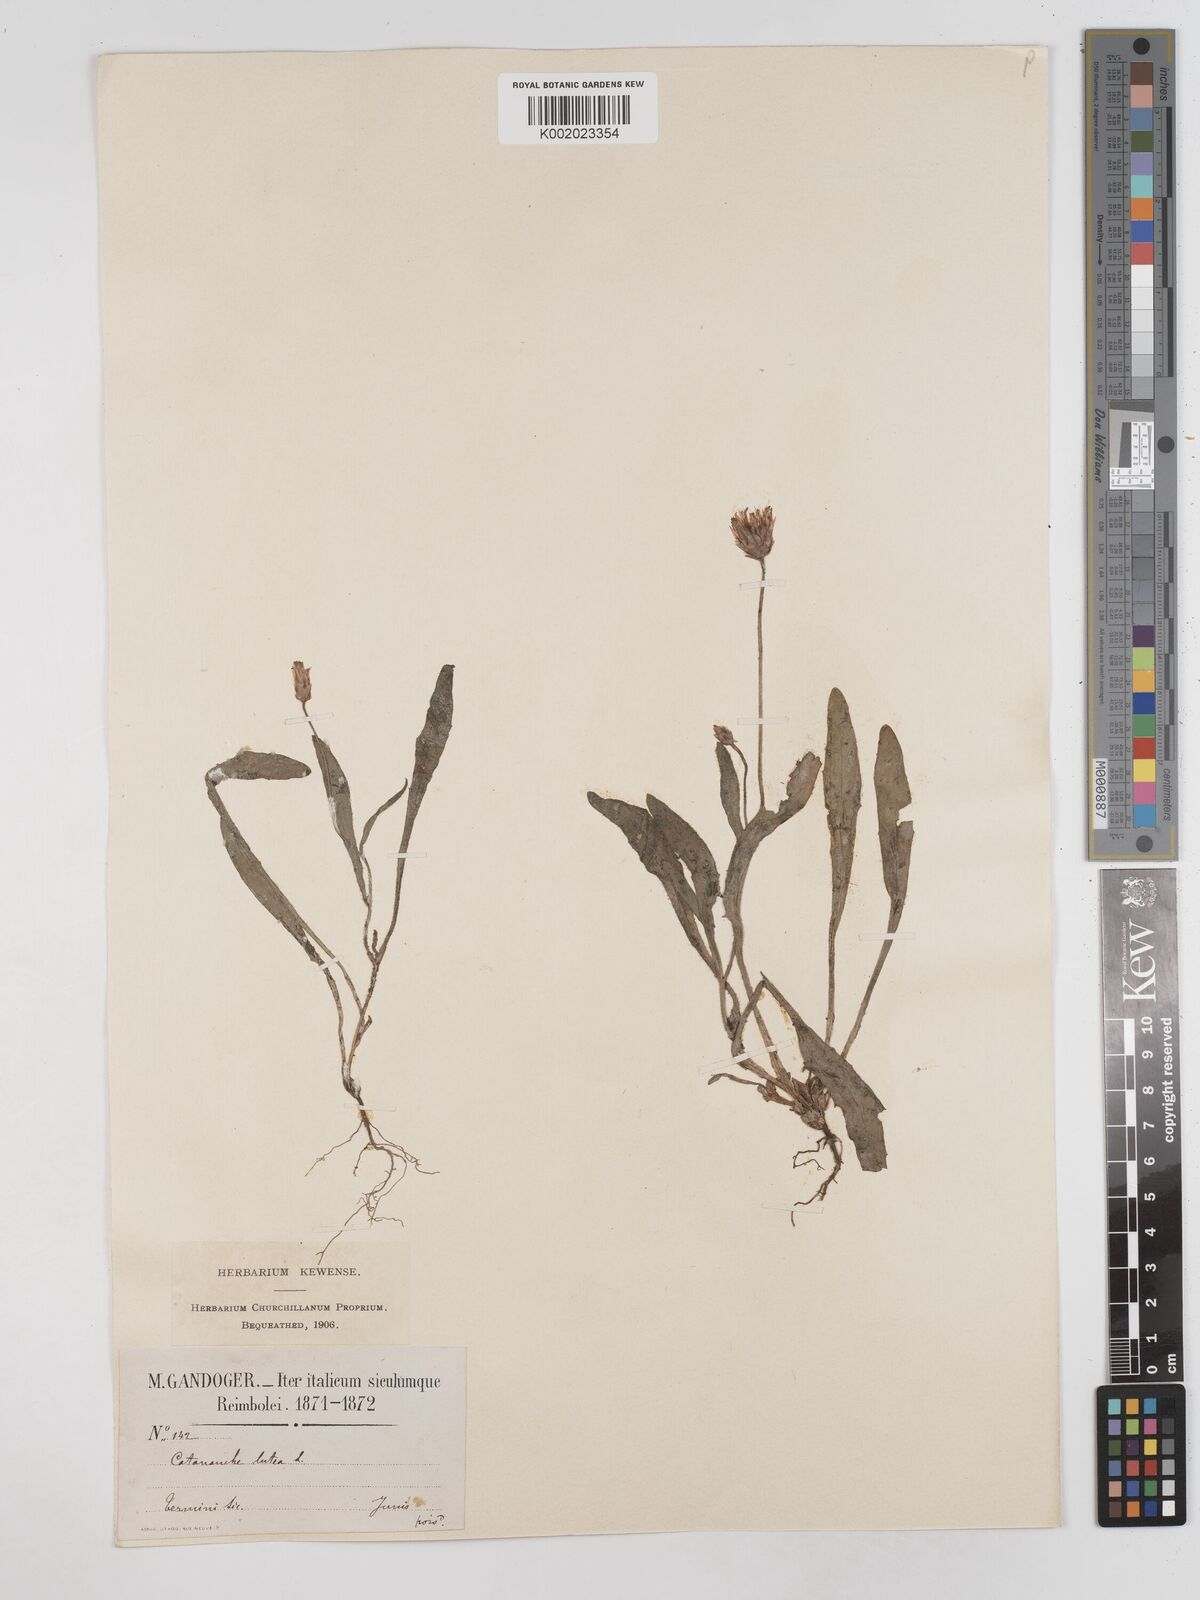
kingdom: Plantae
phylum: Tracheophyta
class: Magnoliopsida
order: Asterales
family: Asteraceae
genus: Catananche
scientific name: Catananche lutea
